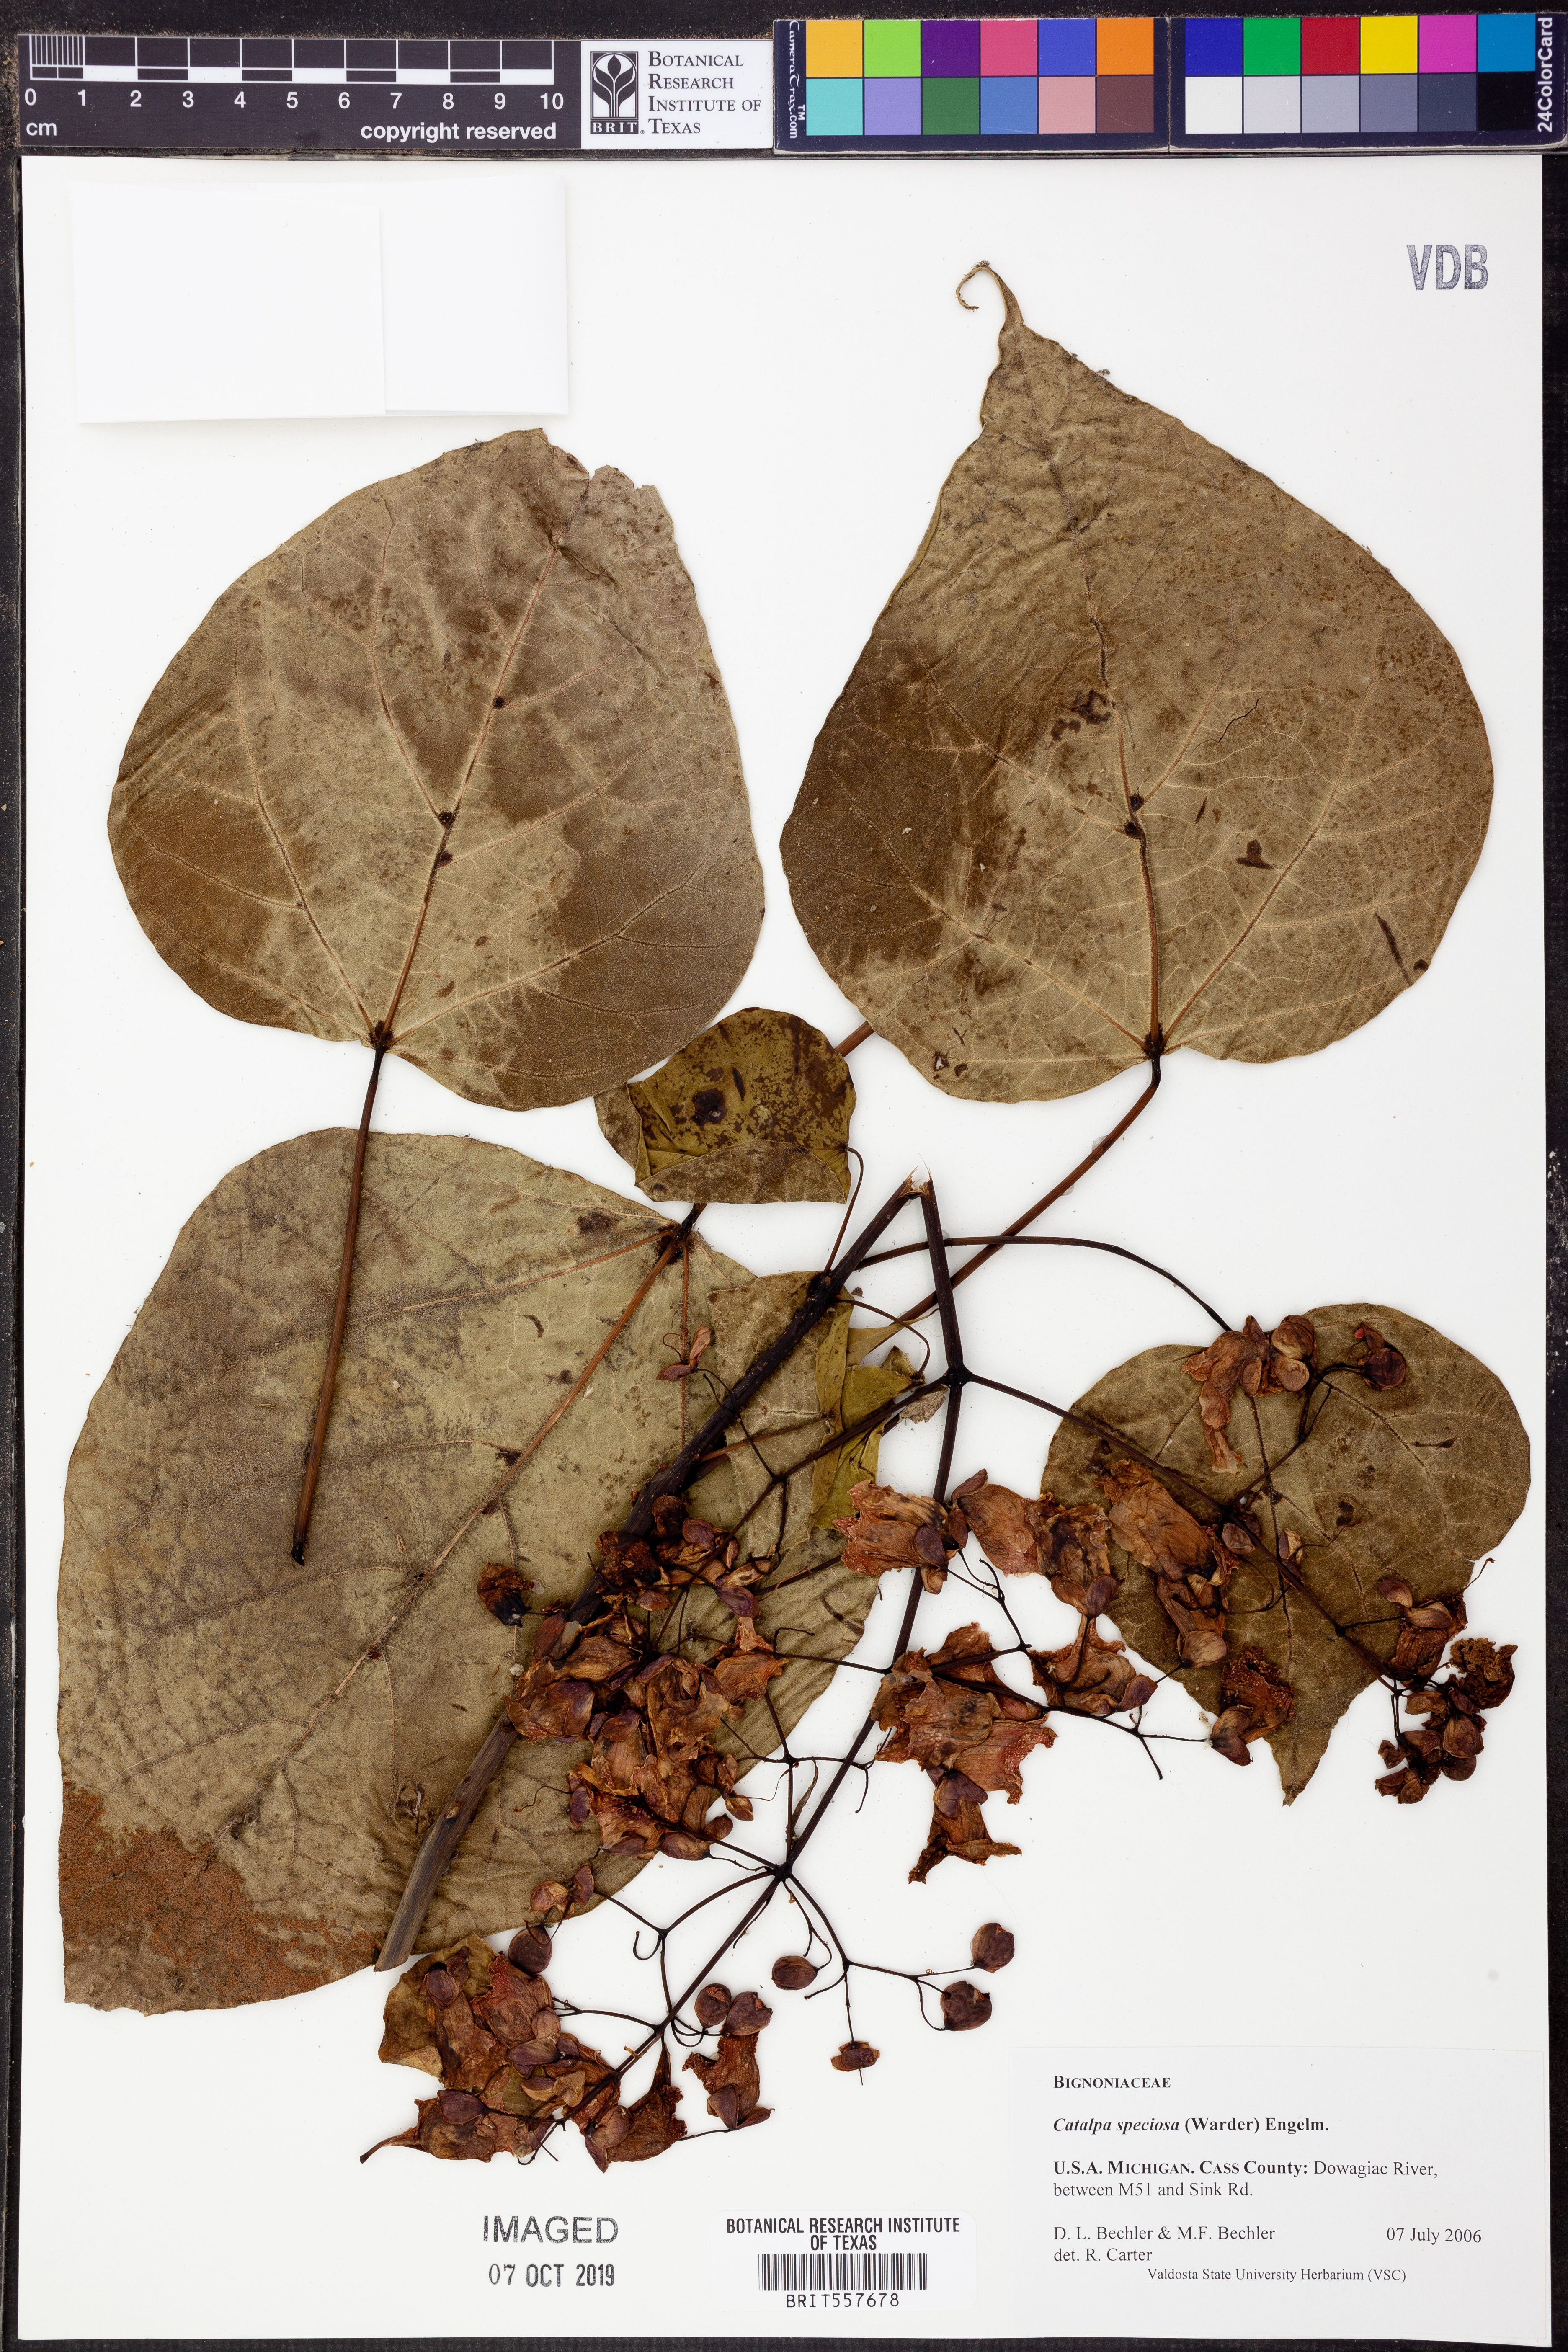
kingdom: Plantae
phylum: Tracheophyta
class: Magnoliopsida
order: Lamiales
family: Bignoniaceae
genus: Catalpa
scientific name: Catalpa speciosa
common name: Northern catalpa
